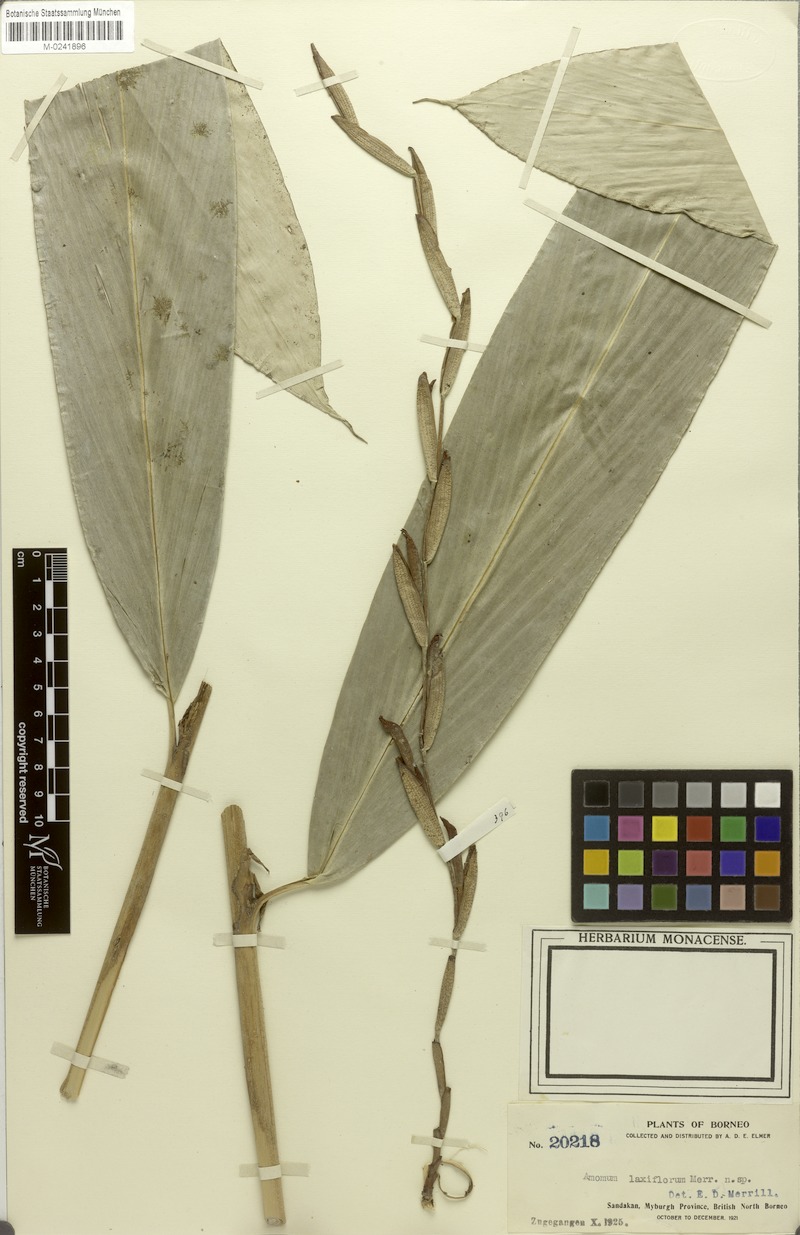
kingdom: Plantae
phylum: Tracheophyta
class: Liliopsida
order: Zingiberales
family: Zingiberaceae
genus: Geocharis
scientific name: Geocharis fusiformis
